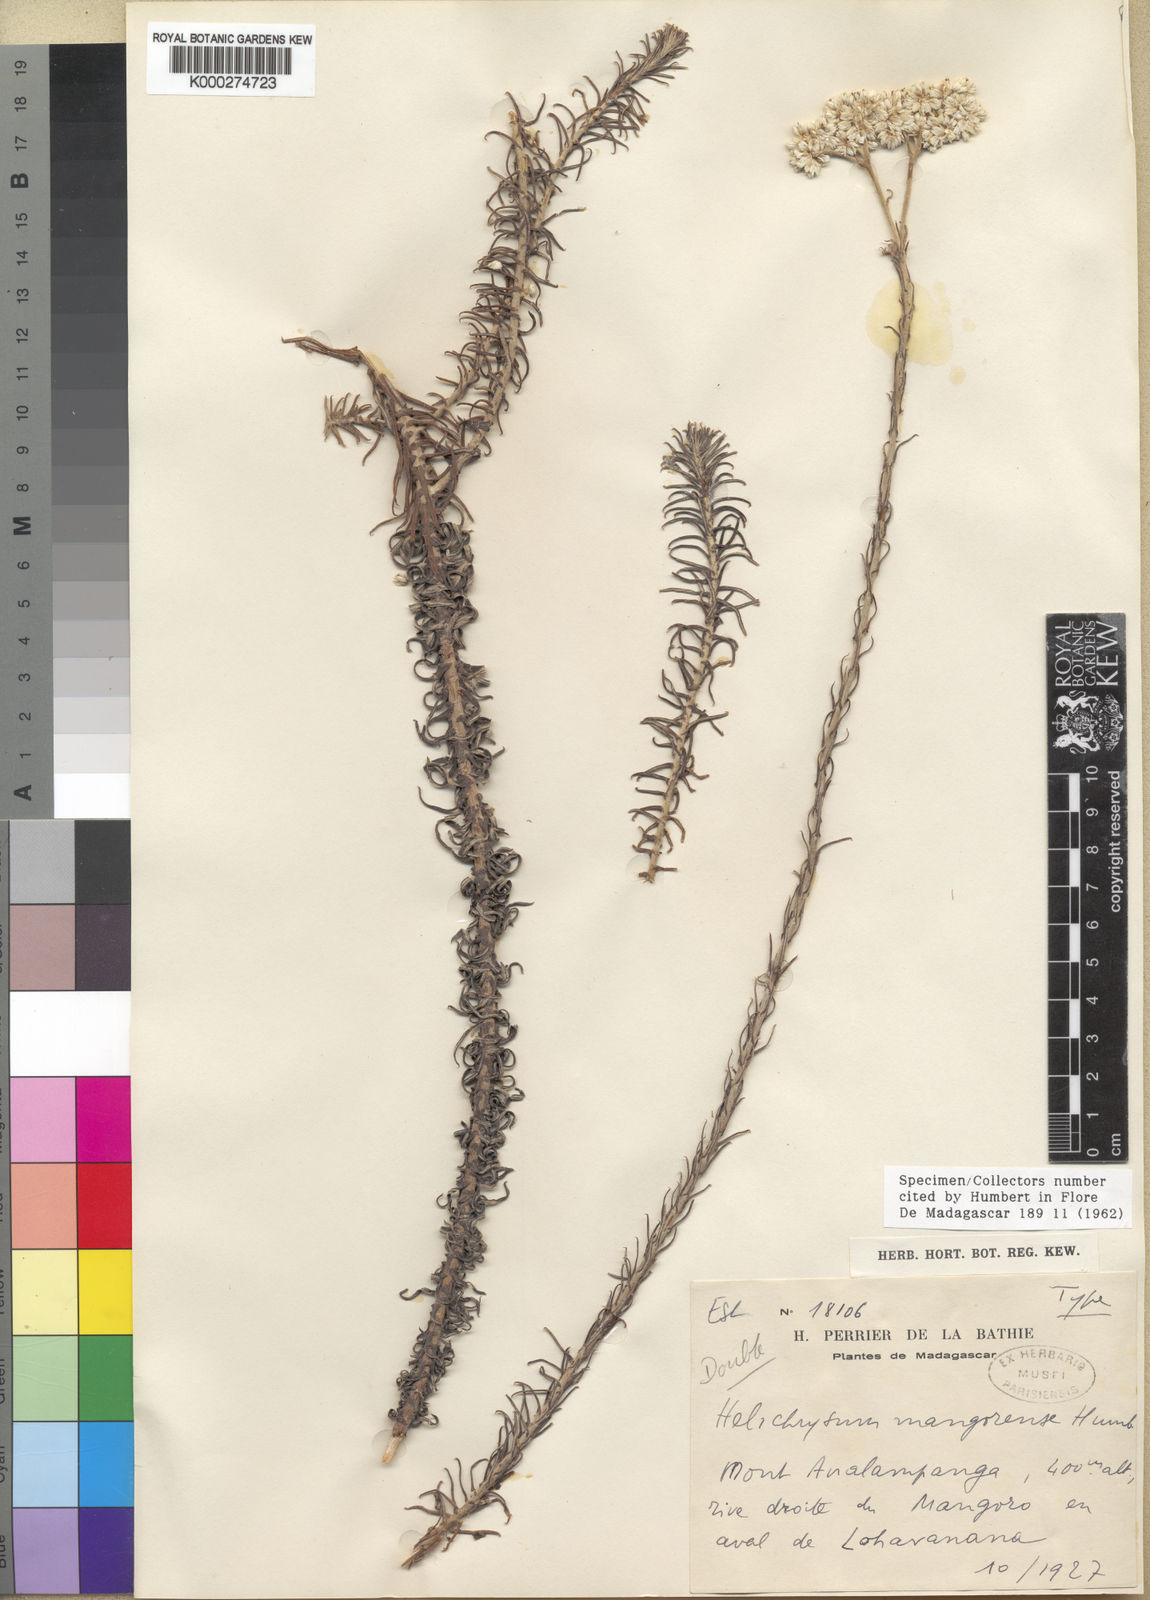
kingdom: Plantae
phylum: Tracheophyta
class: Magnoliopsida
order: Asterales
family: Asteraceae
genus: Helichrysum
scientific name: Helichrysum mangorense
